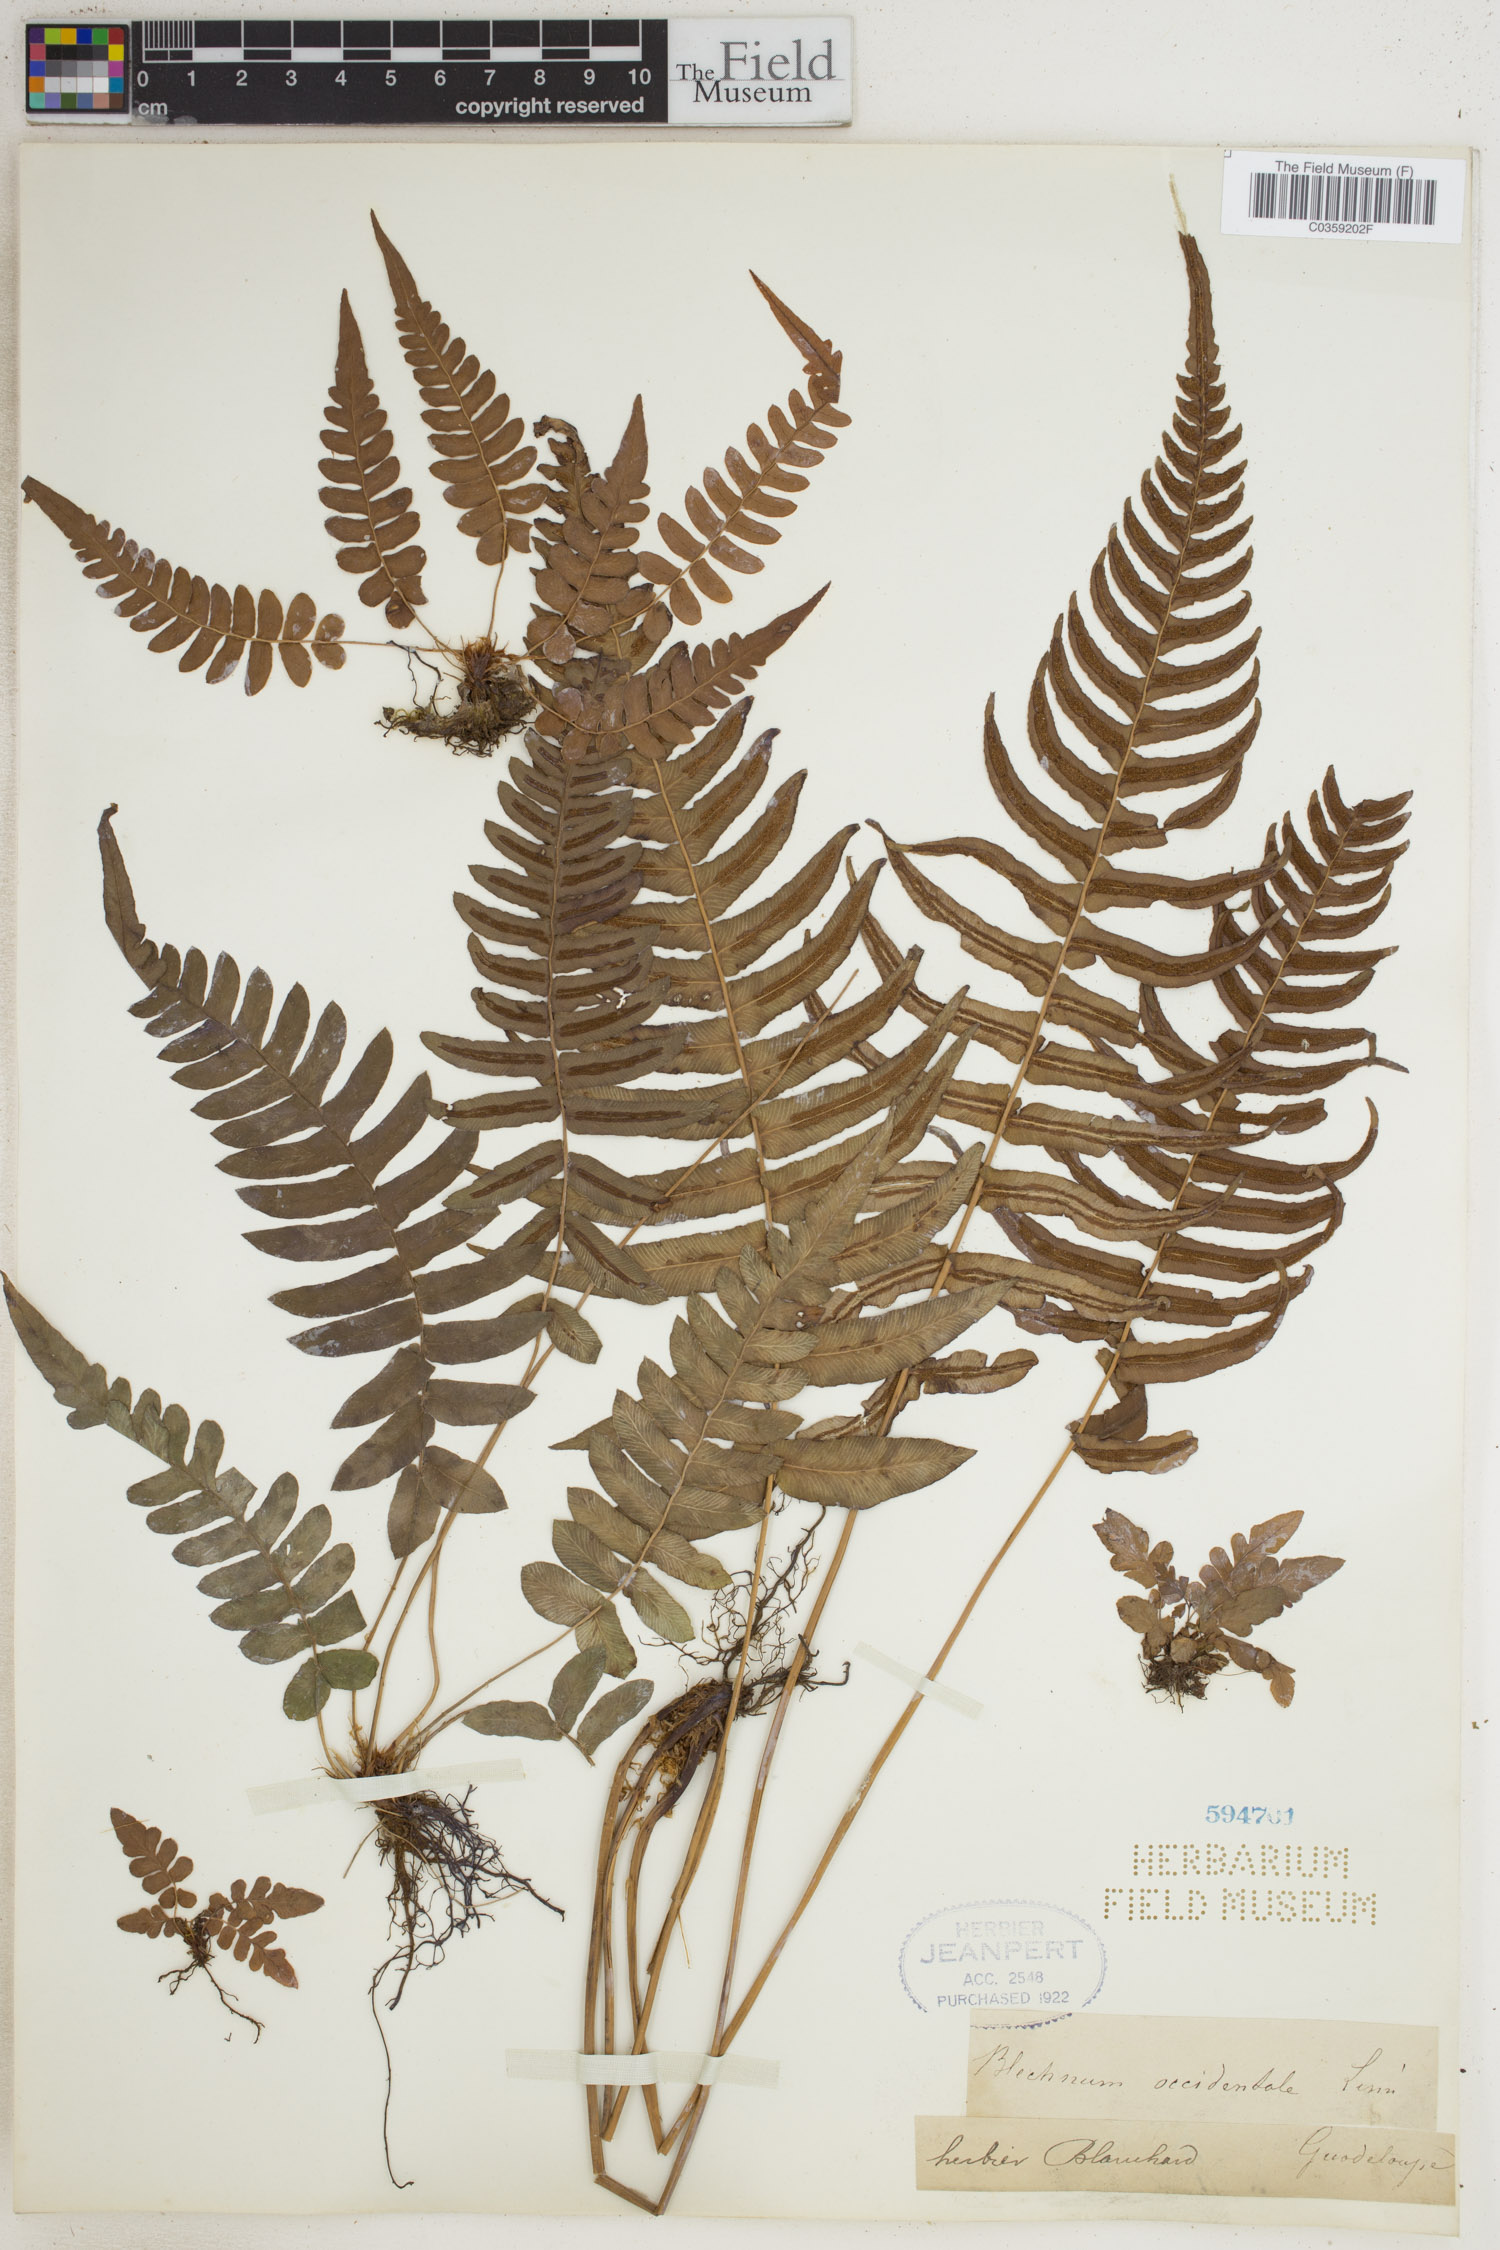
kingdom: Plantae
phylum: Tracheophyta
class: Polypodiopsida
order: Polypodiales
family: Blechnaceae
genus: Blechnum
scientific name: Blechnum occidentale
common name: Hammock fern
